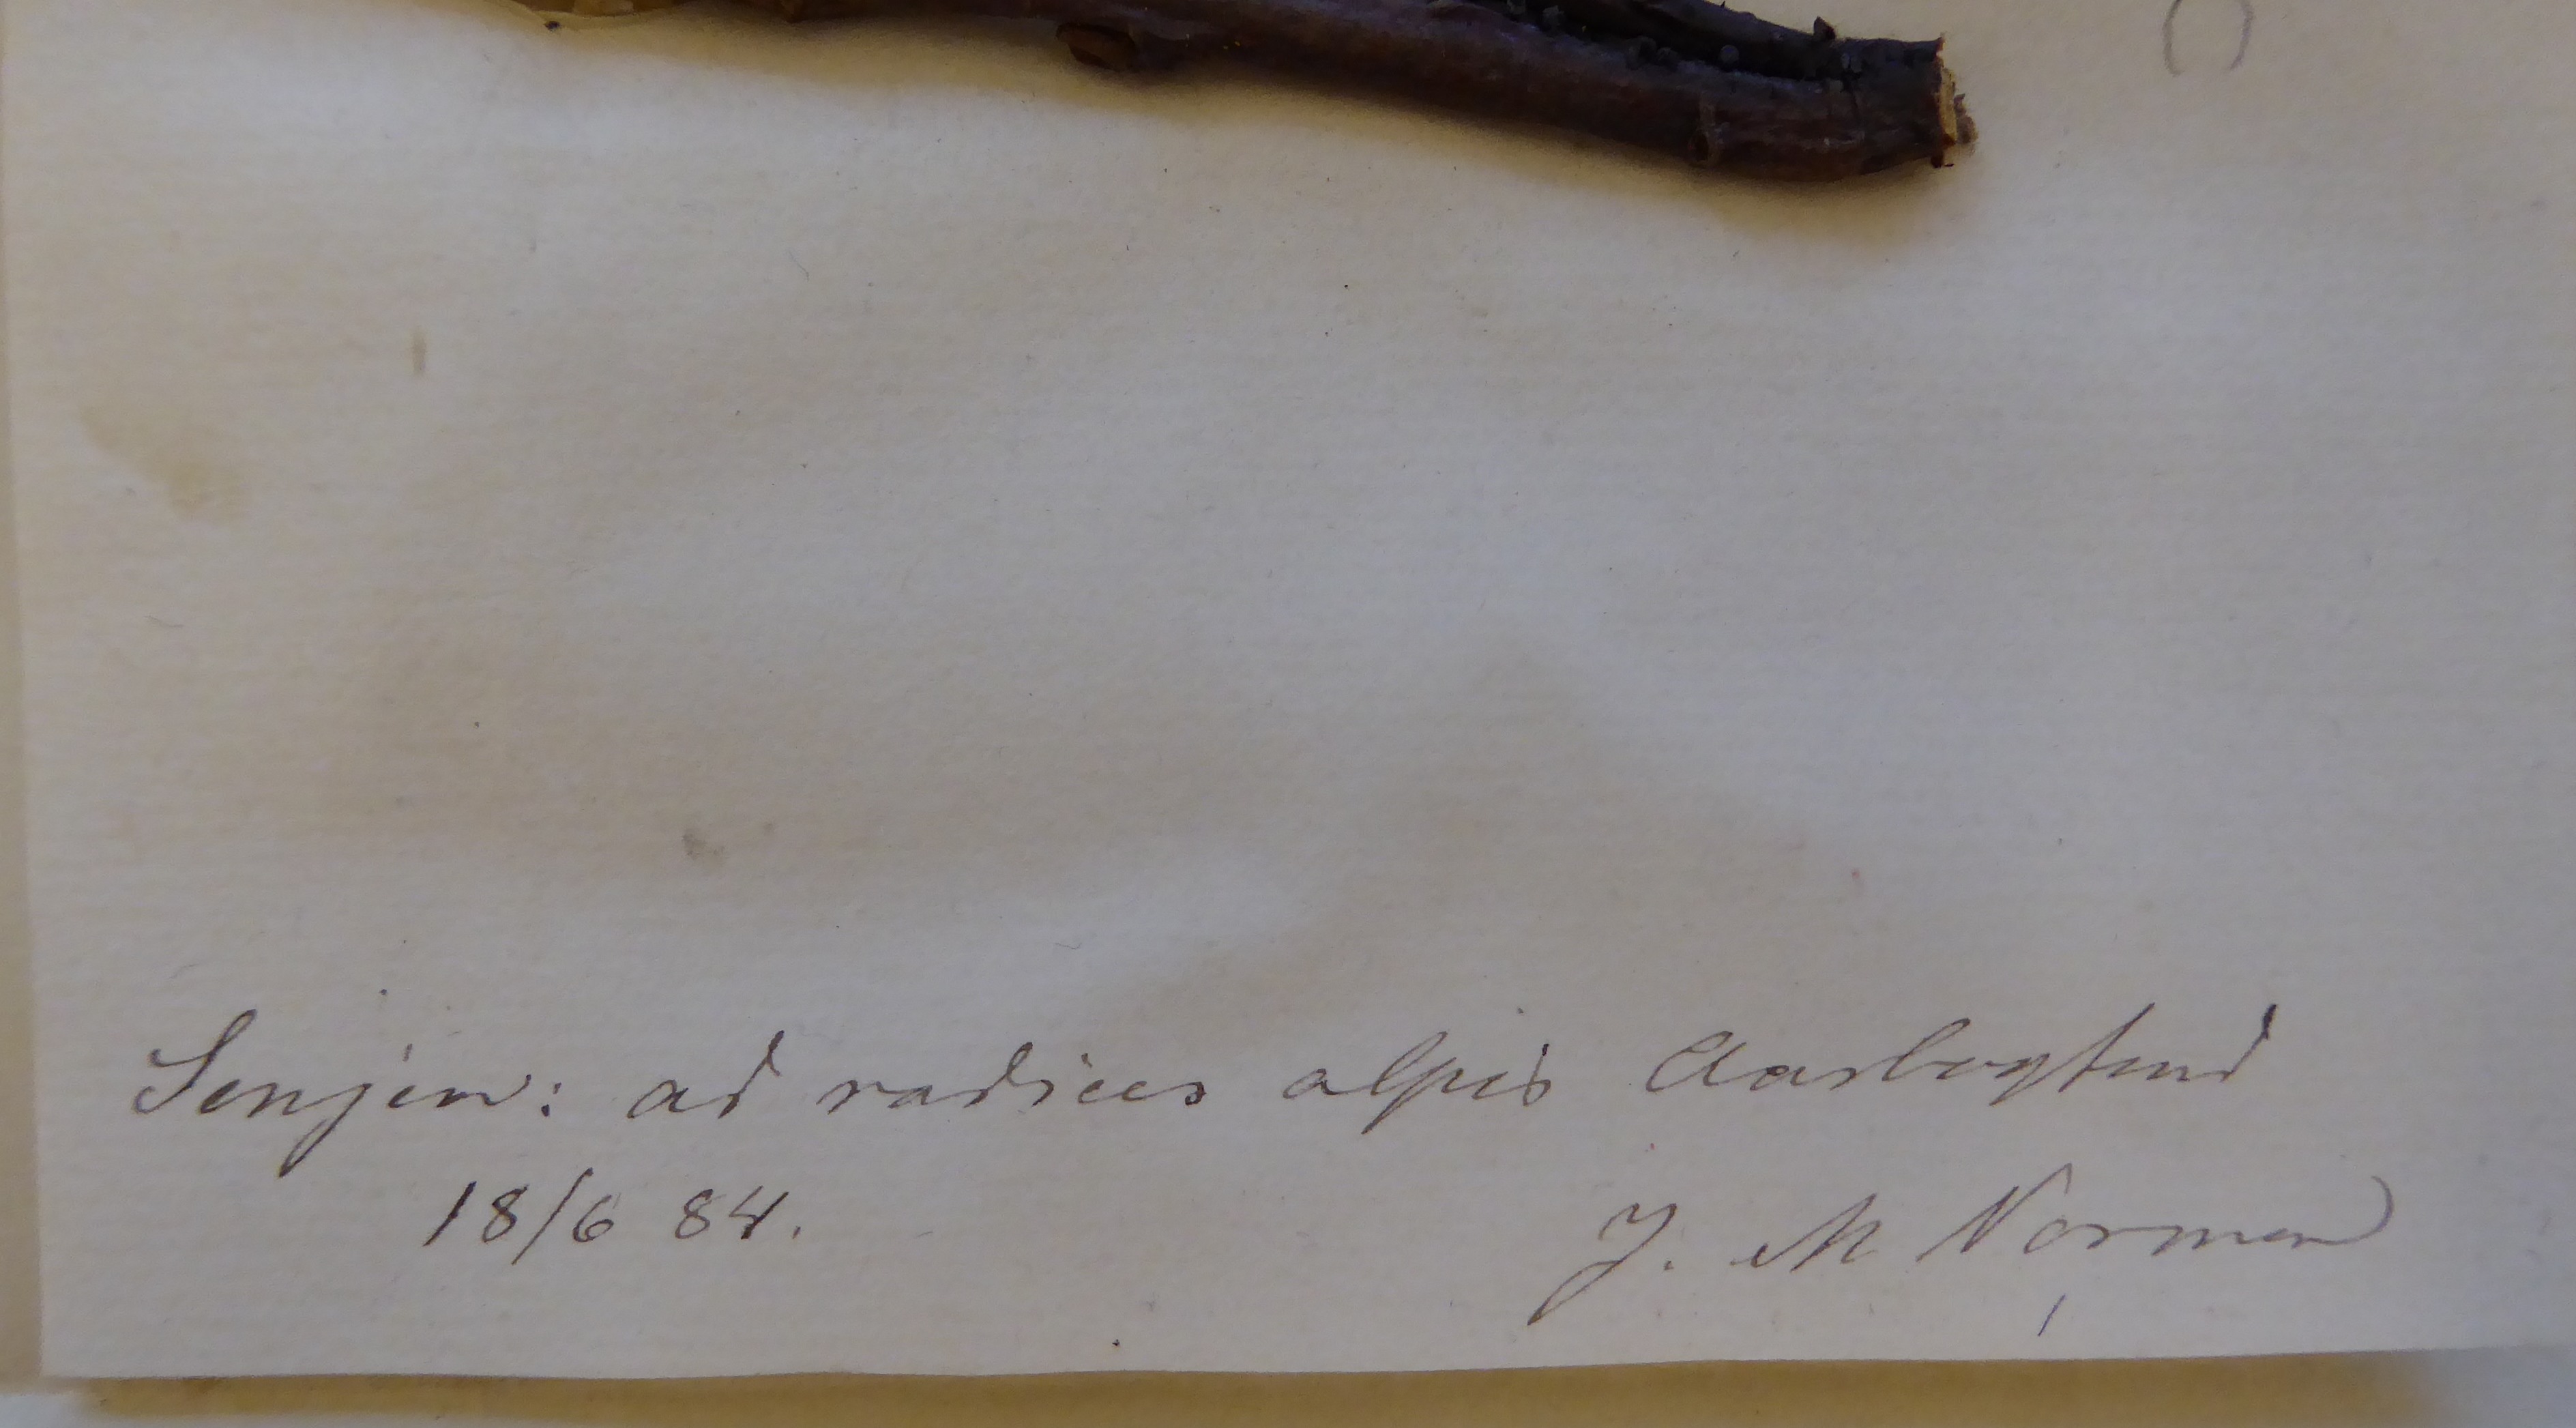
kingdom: Protozoa
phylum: Mycetozoa
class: Myxomycetes
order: Stemonitidales
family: Stemonitidaceae
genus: Lamproderma
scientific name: Lamproderma sauteri
